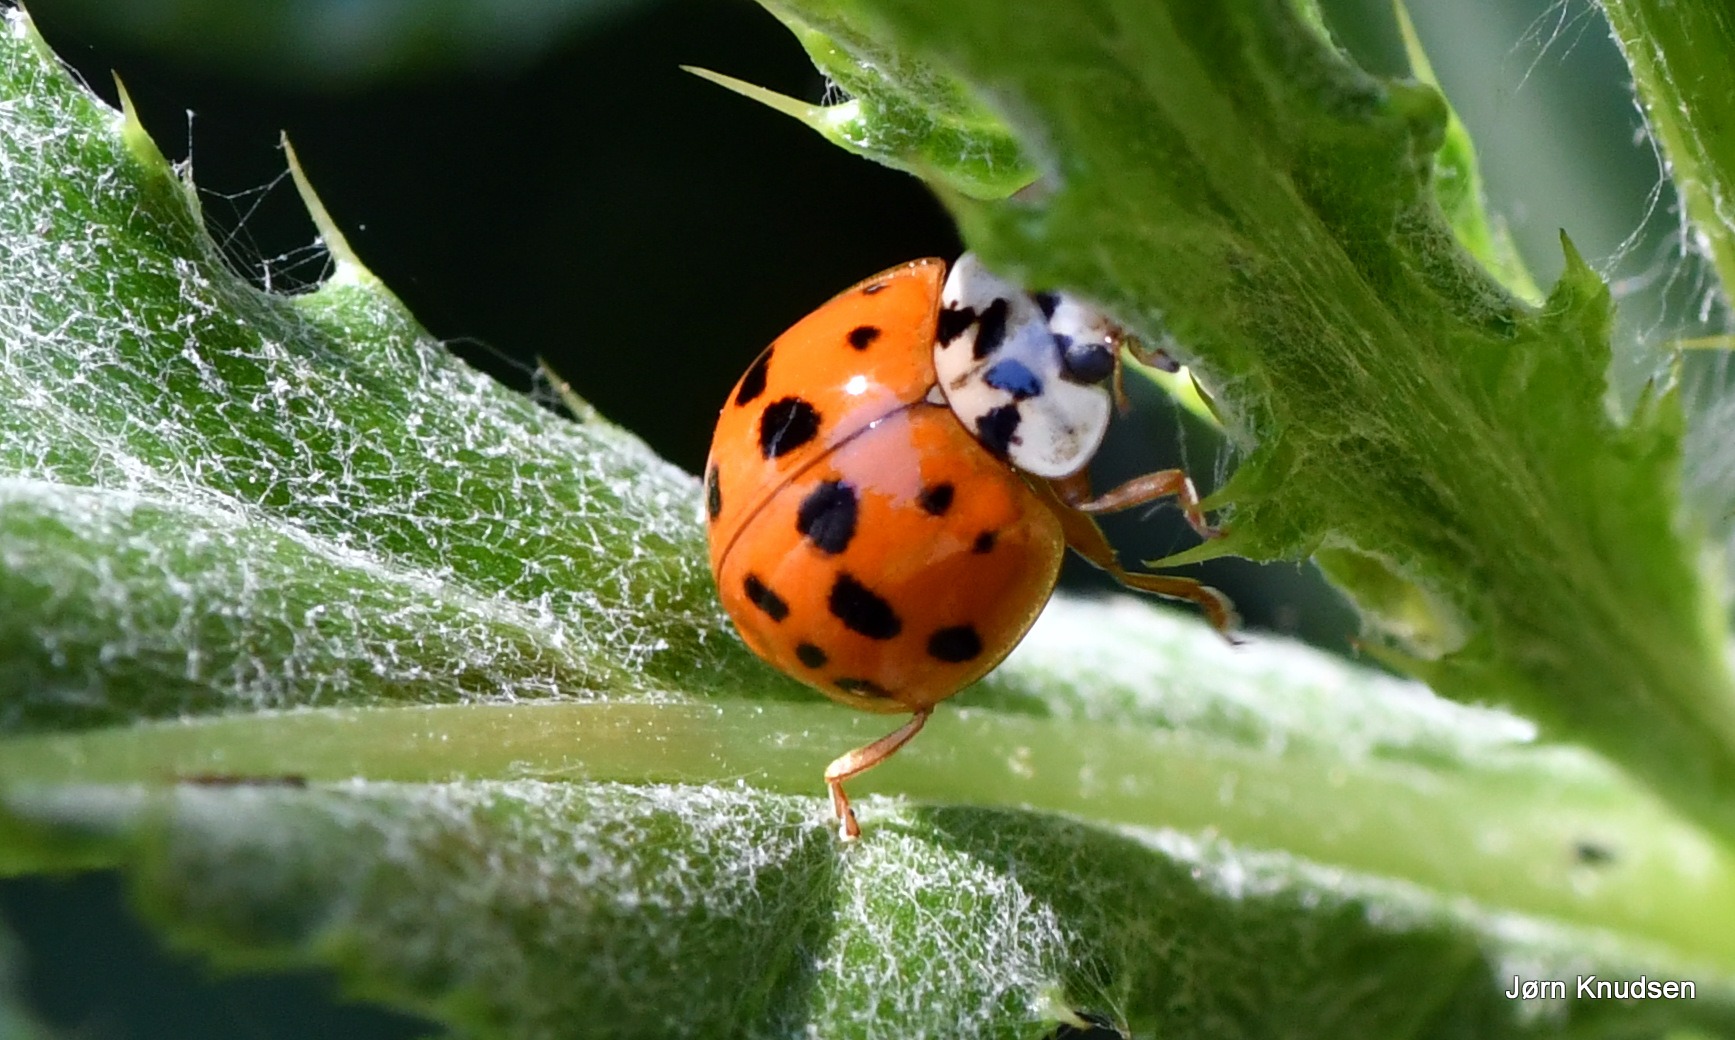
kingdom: Animalia
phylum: Arthropoda
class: Insecta
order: Coleoptera
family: Coccinellidae
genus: Harmonia
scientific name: Harmonia axyridis
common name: Harlekinmariehøne
